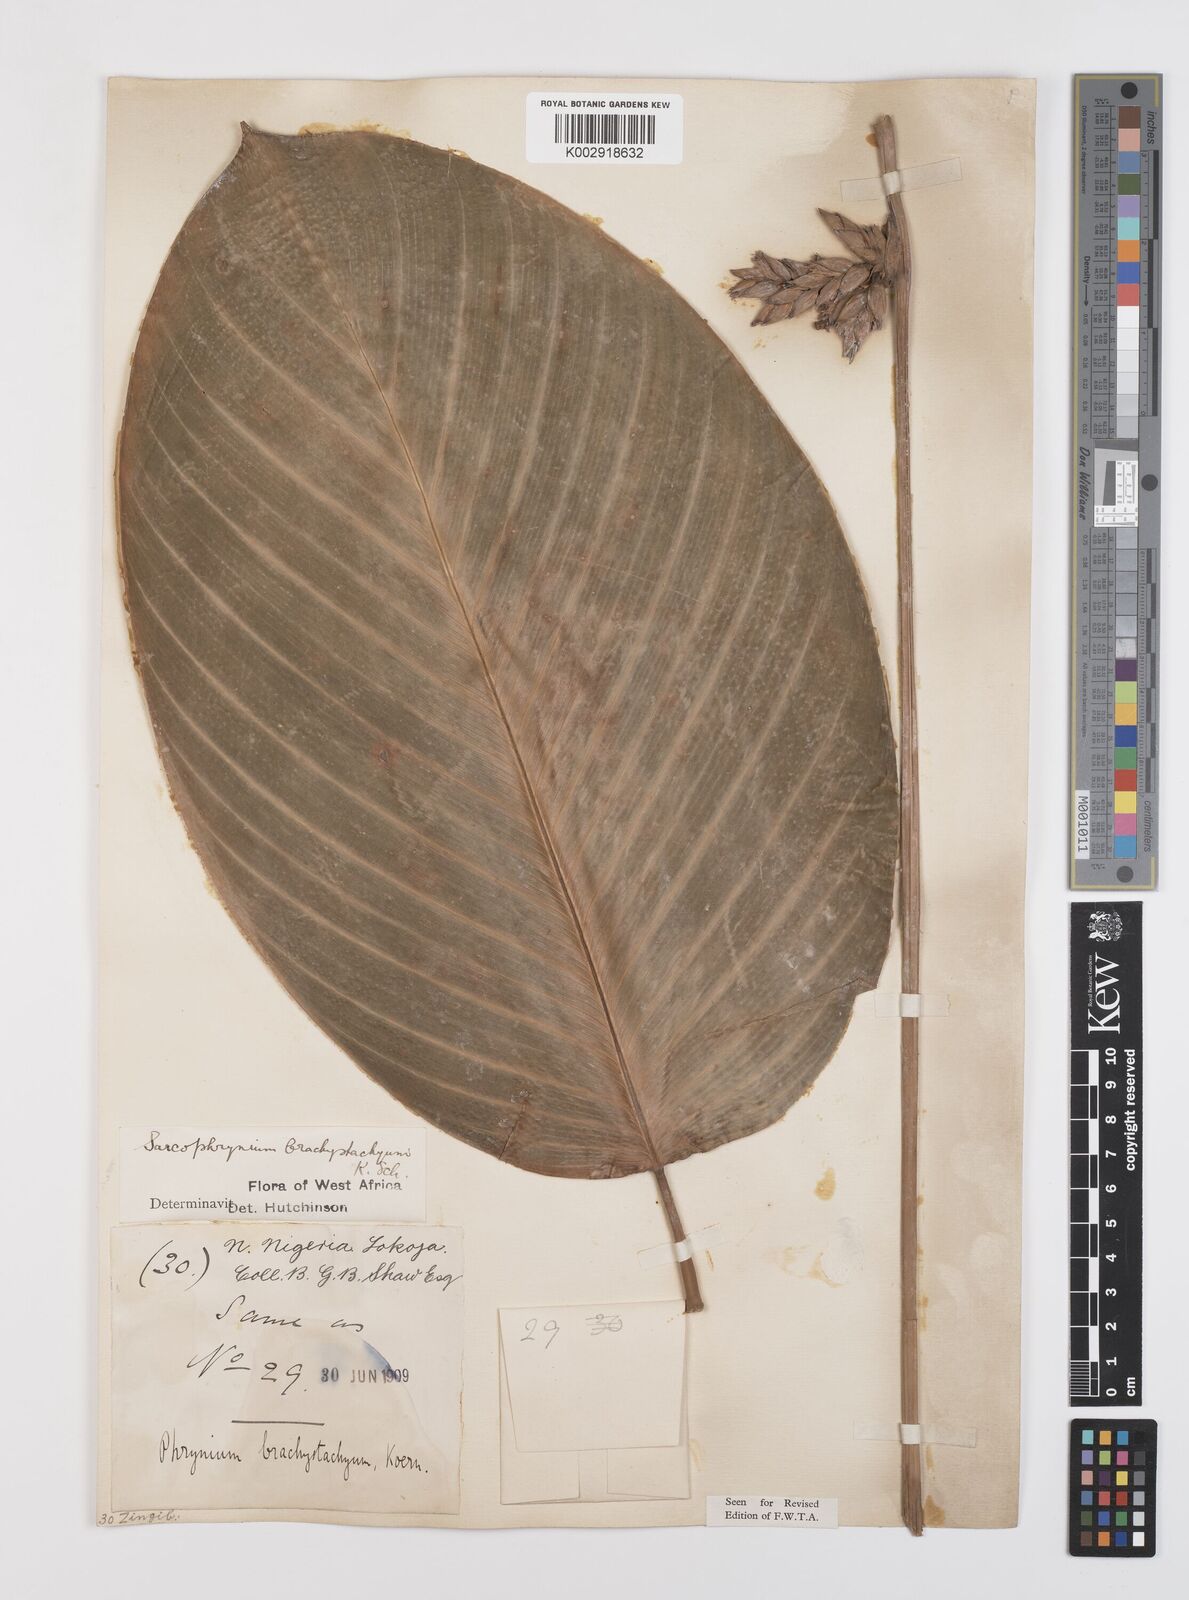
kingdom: Plantae
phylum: Tracheophyta
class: Liliopsida
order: Zingiberales
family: Marantaceae
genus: Sarcophrynium
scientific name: Sarcophrynium brachystachyum
